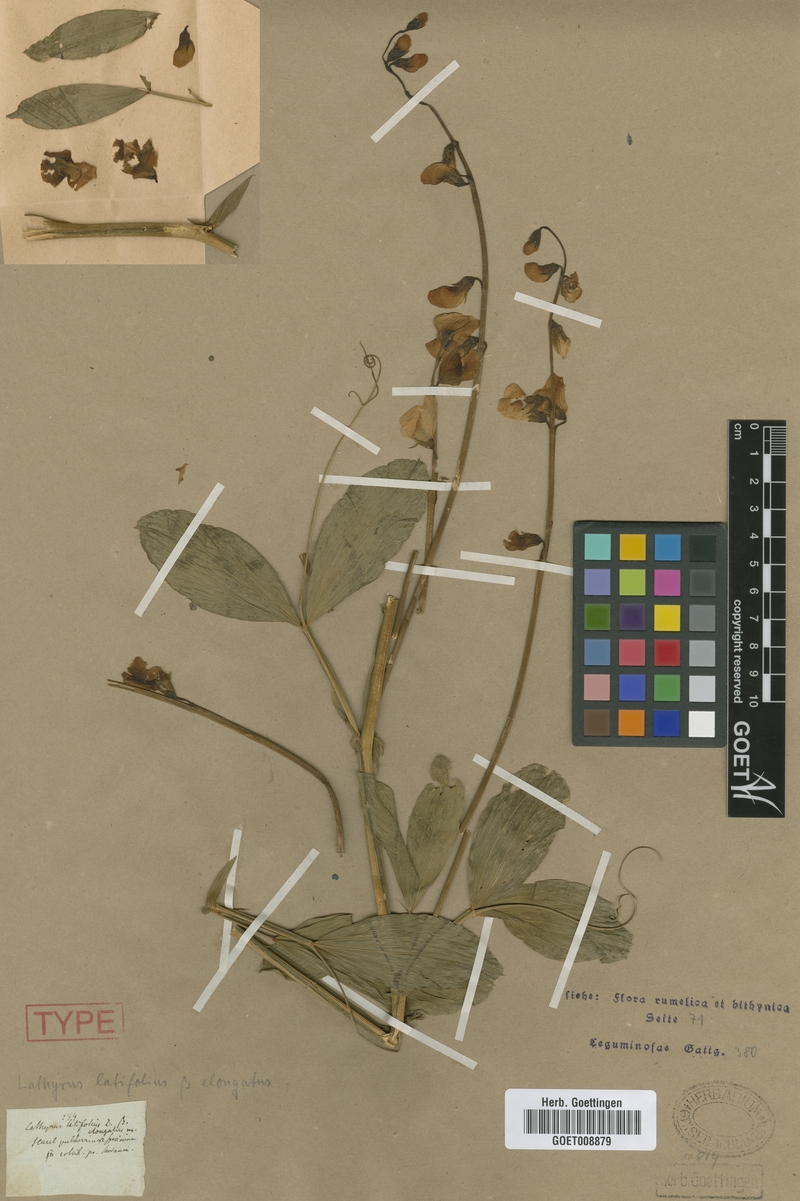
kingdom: Plantae
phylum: Tracheophyta
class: Magnoliopsida
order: Fabales
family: Fabaceae
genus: Lathyrus
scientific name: Lathyrus latifolius
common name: Perennial pea
